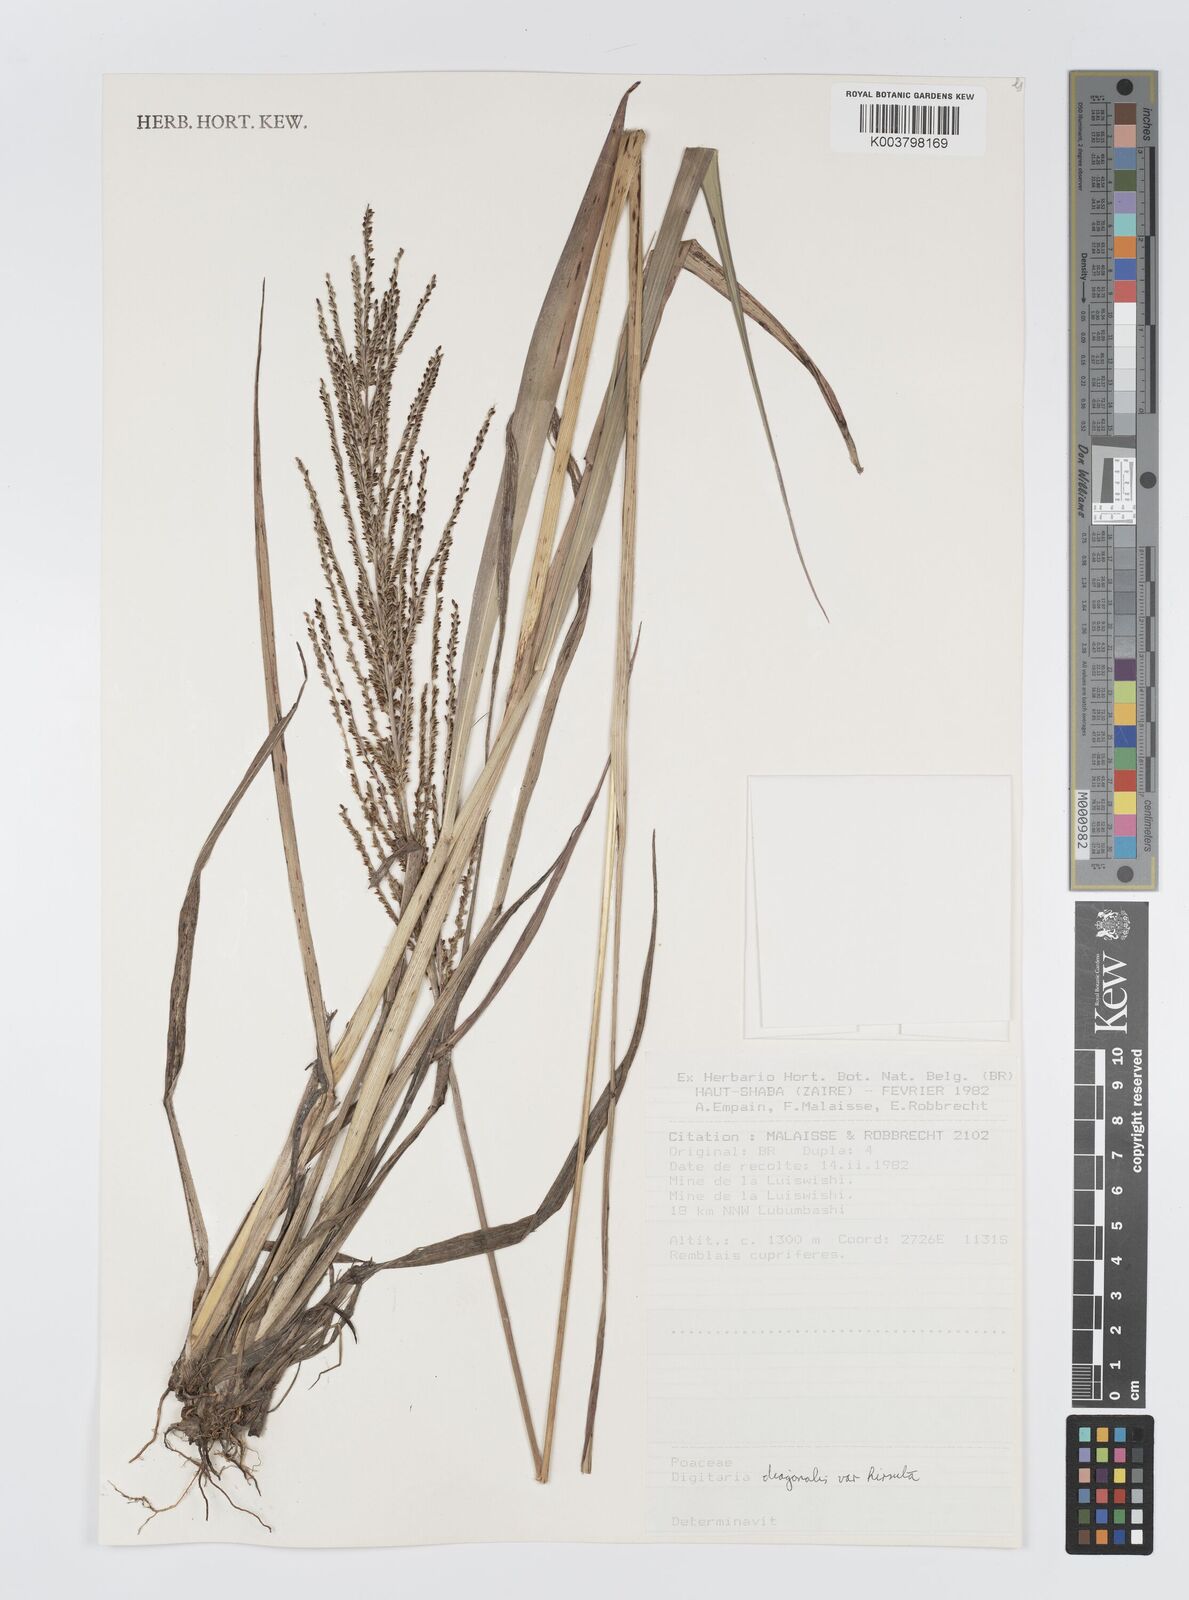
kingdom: Plantae
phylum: Tracheophyta
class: Liliopsida
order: Poales
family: Poaceae
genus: Digitaria
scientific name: Digitaria diagonalis
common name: Brown-seed finger grass
